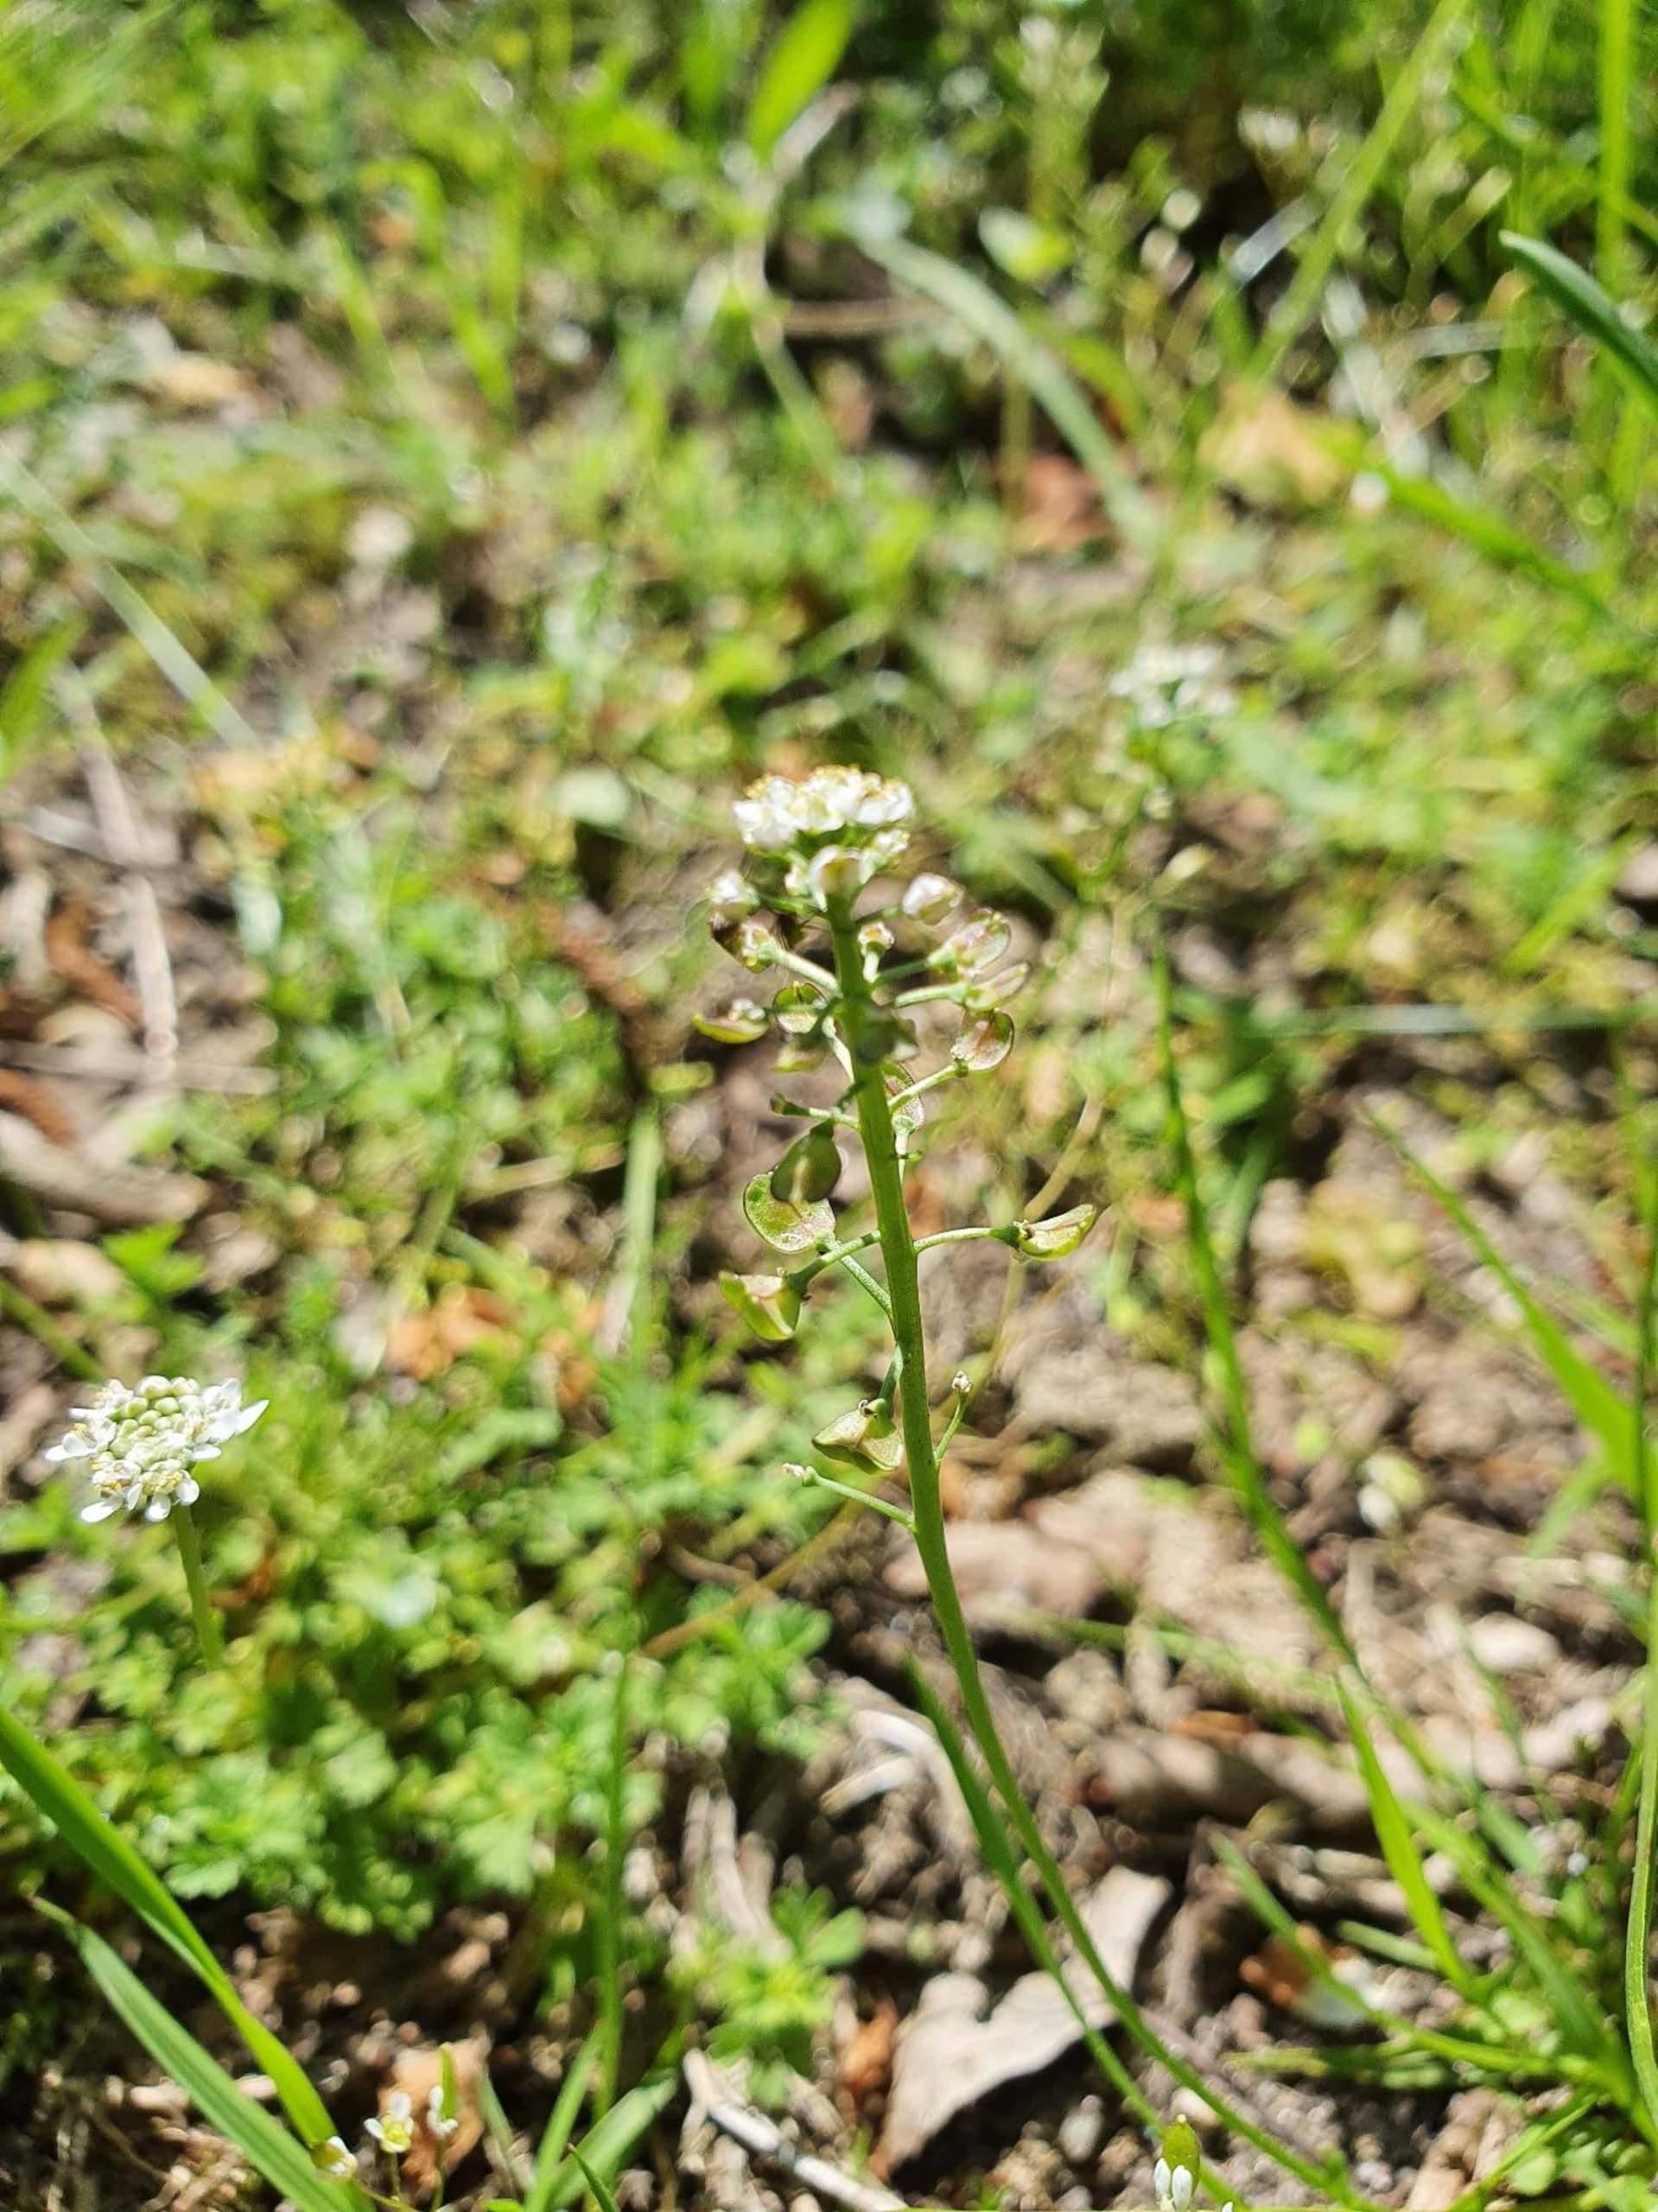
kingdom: Plantae
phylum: Tracheophyta
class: Magnoliopsida
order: Brassicales
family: Brassicaceae
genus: Teesdalia
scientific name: Teesdalia nudicaulis
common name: Flipkrave
